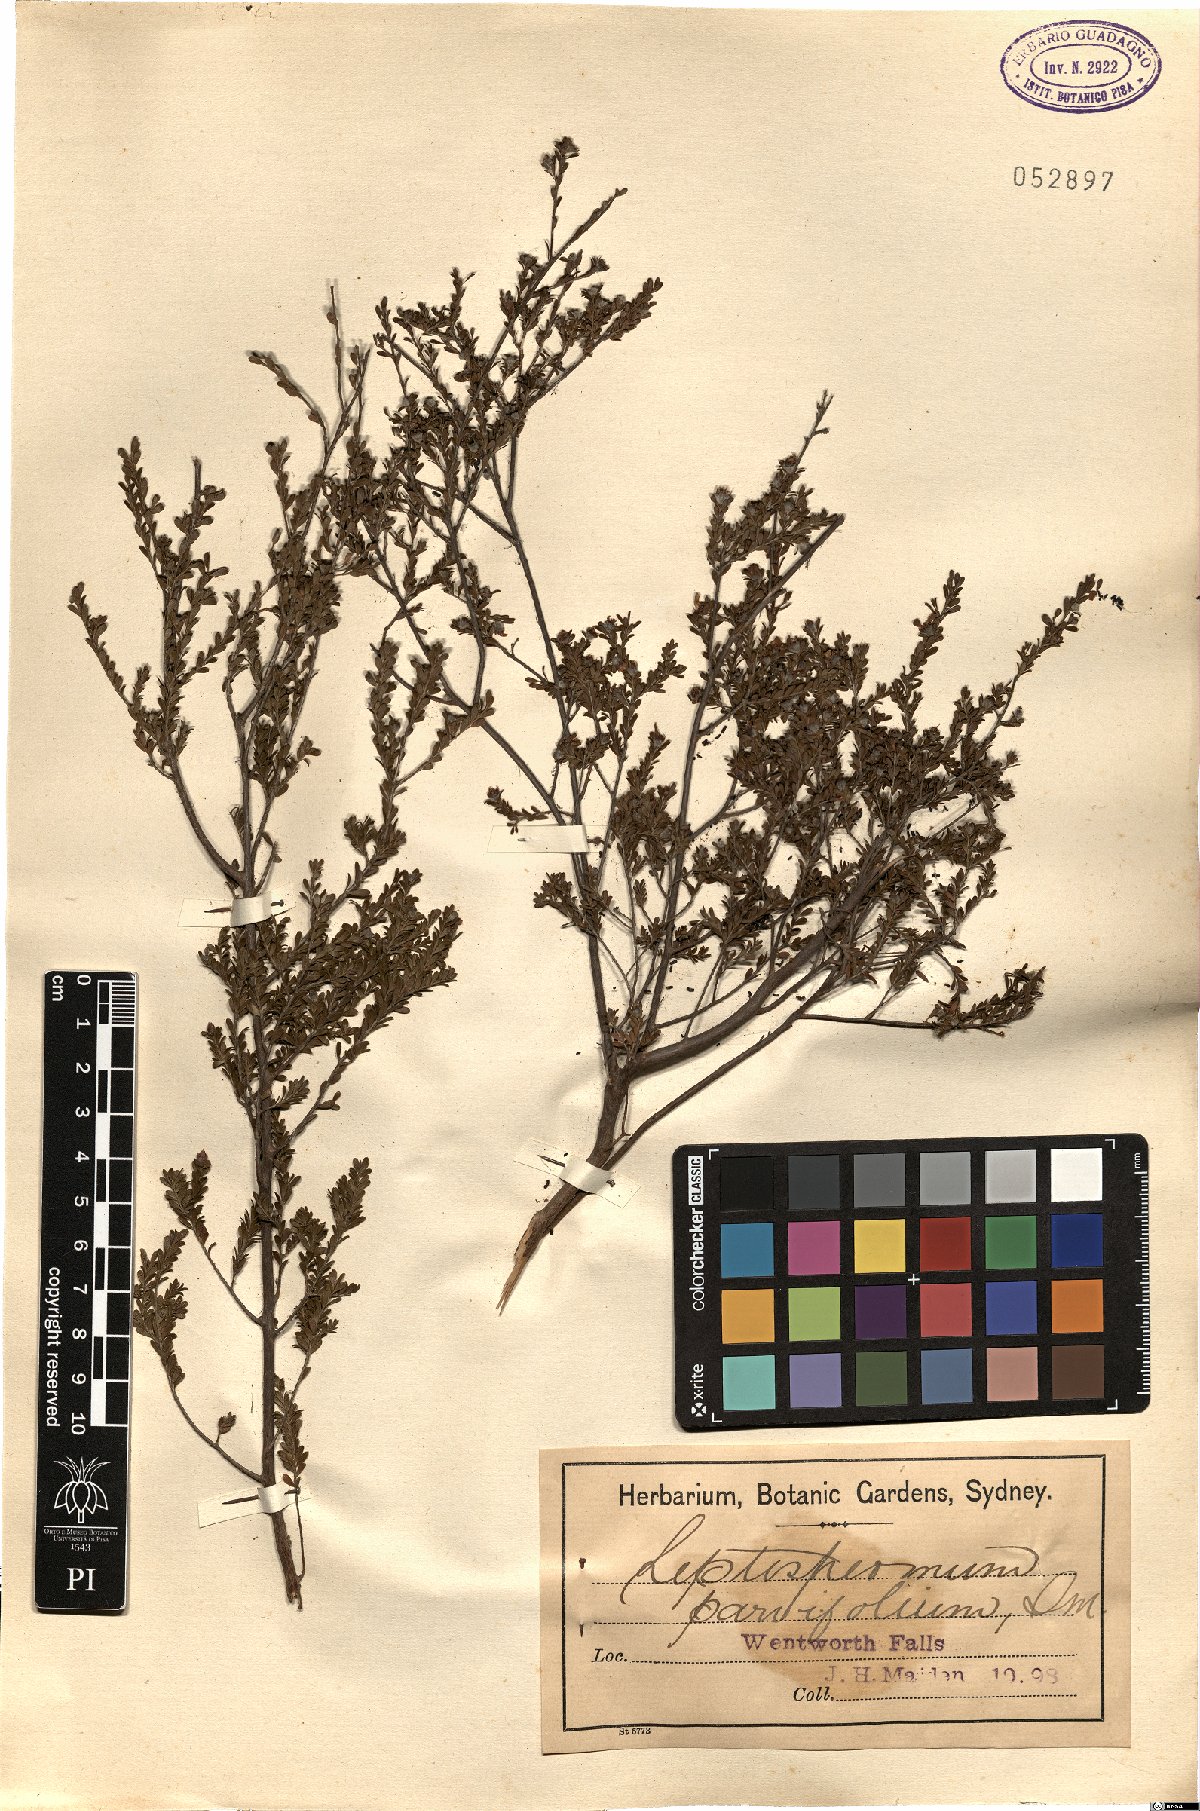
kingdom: Plantae
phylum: Tracheophyta
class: Magnoliopsida
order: Myrtales
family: Myrtaceae
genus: Leptospermum
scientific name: Leptospermum parvifolium
